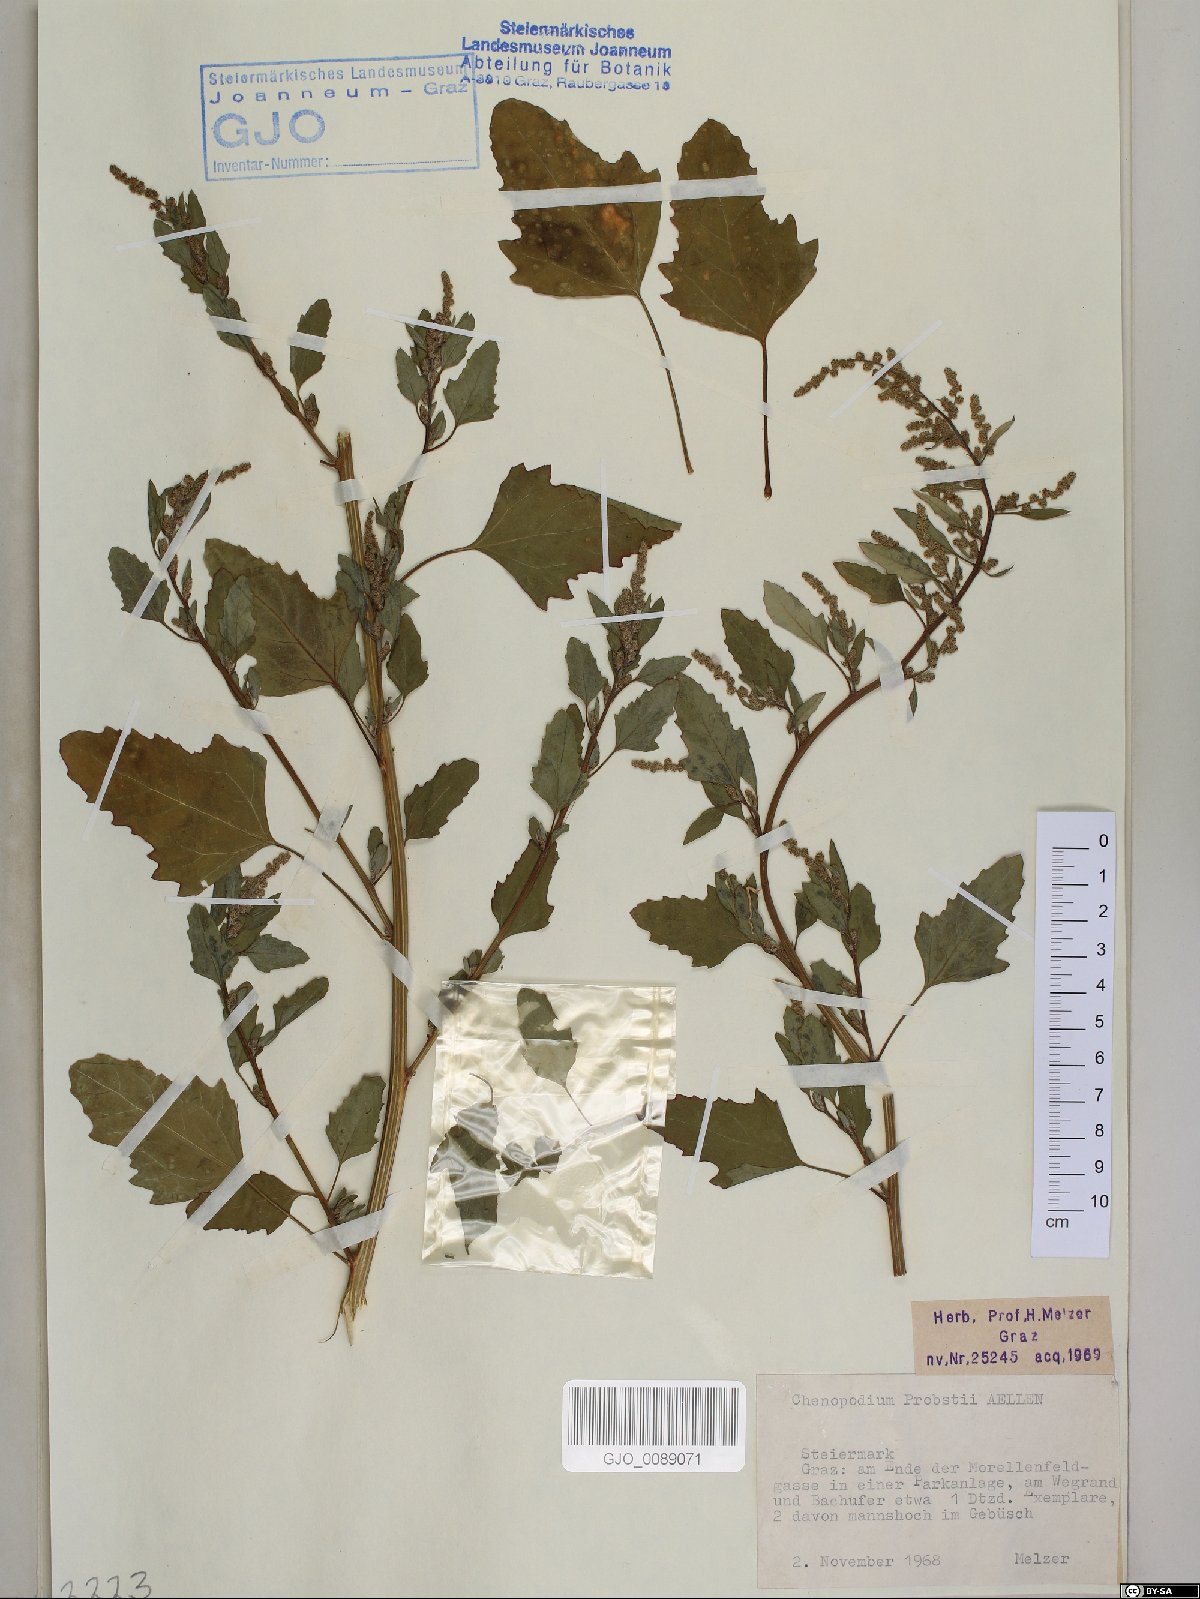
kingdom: Plantae
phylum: Tracheophyta
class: Magnoliopsida
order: Caryophyllales
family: Amaranthaceae
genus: Chenopodium
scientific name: Chenopodium probstii
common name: Probst's goosefoot
